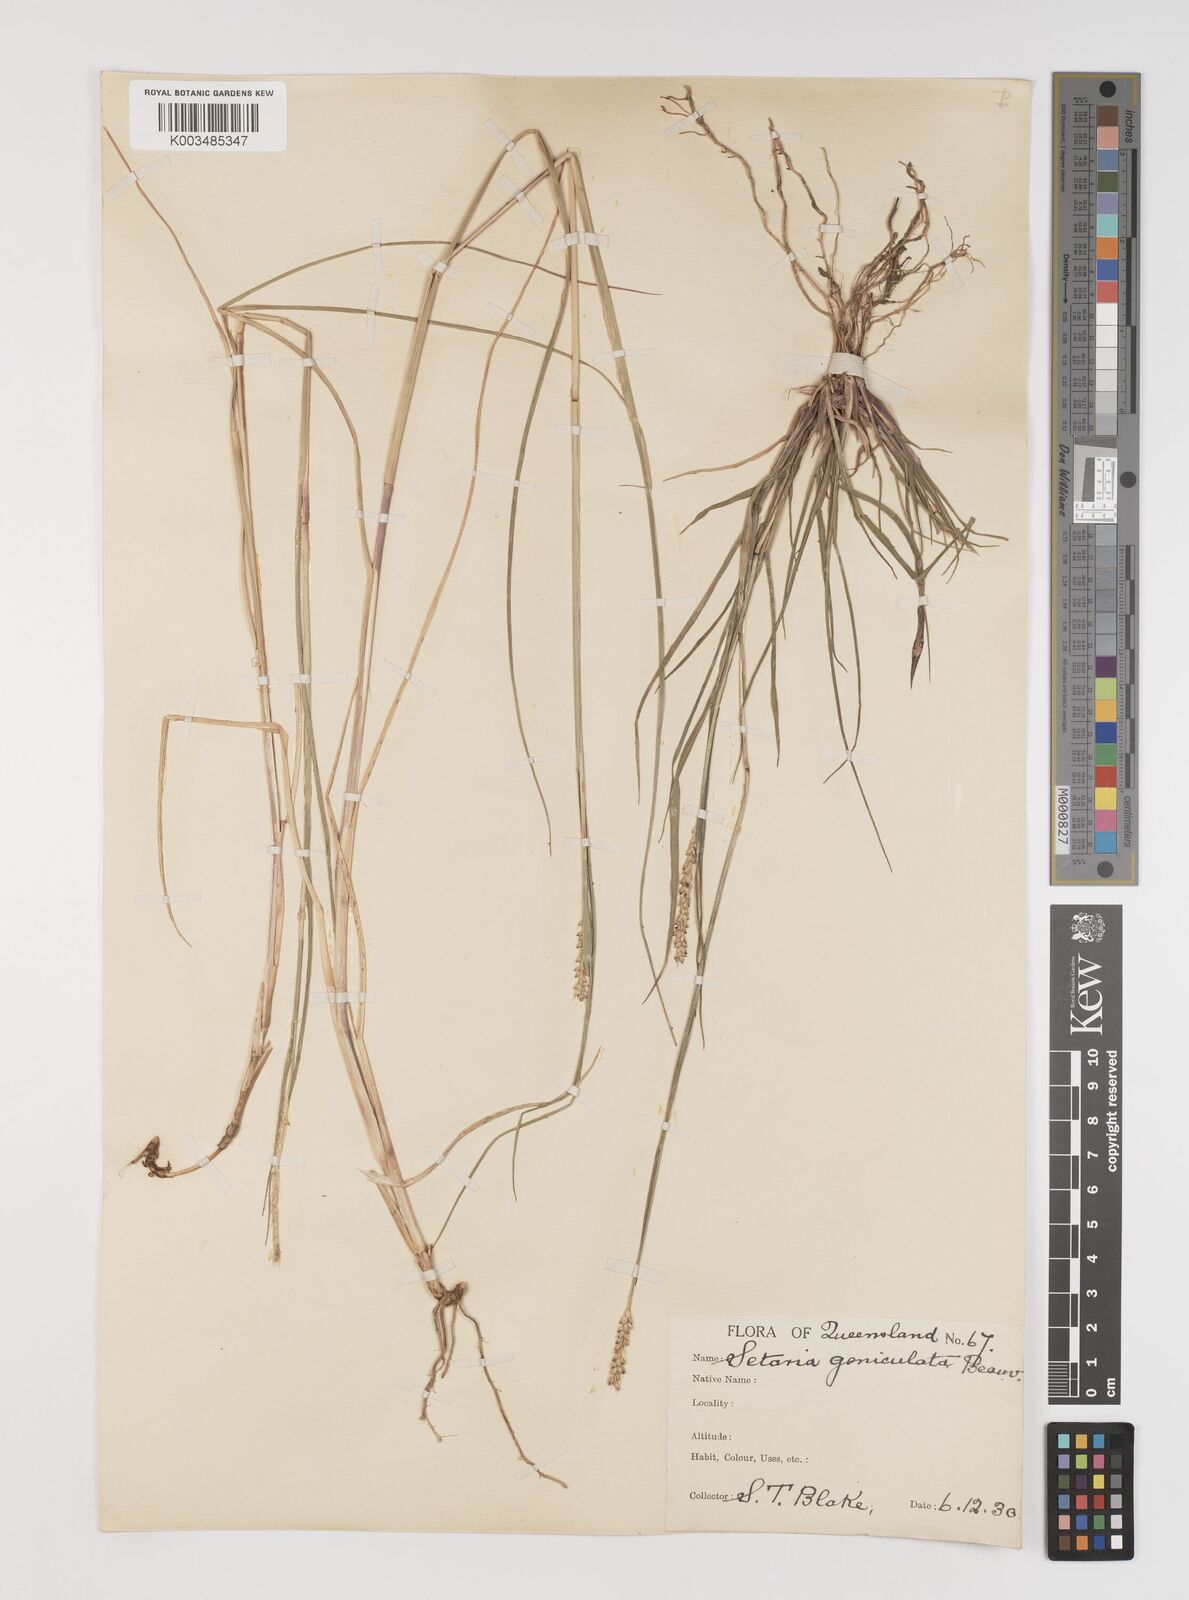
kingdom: Plantae
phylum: Tracheophyta
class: Liliopsida
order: Poales
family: Poaceae
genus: Setaria
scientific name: Setaria parviflora
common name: Knotroot bristle-grass
